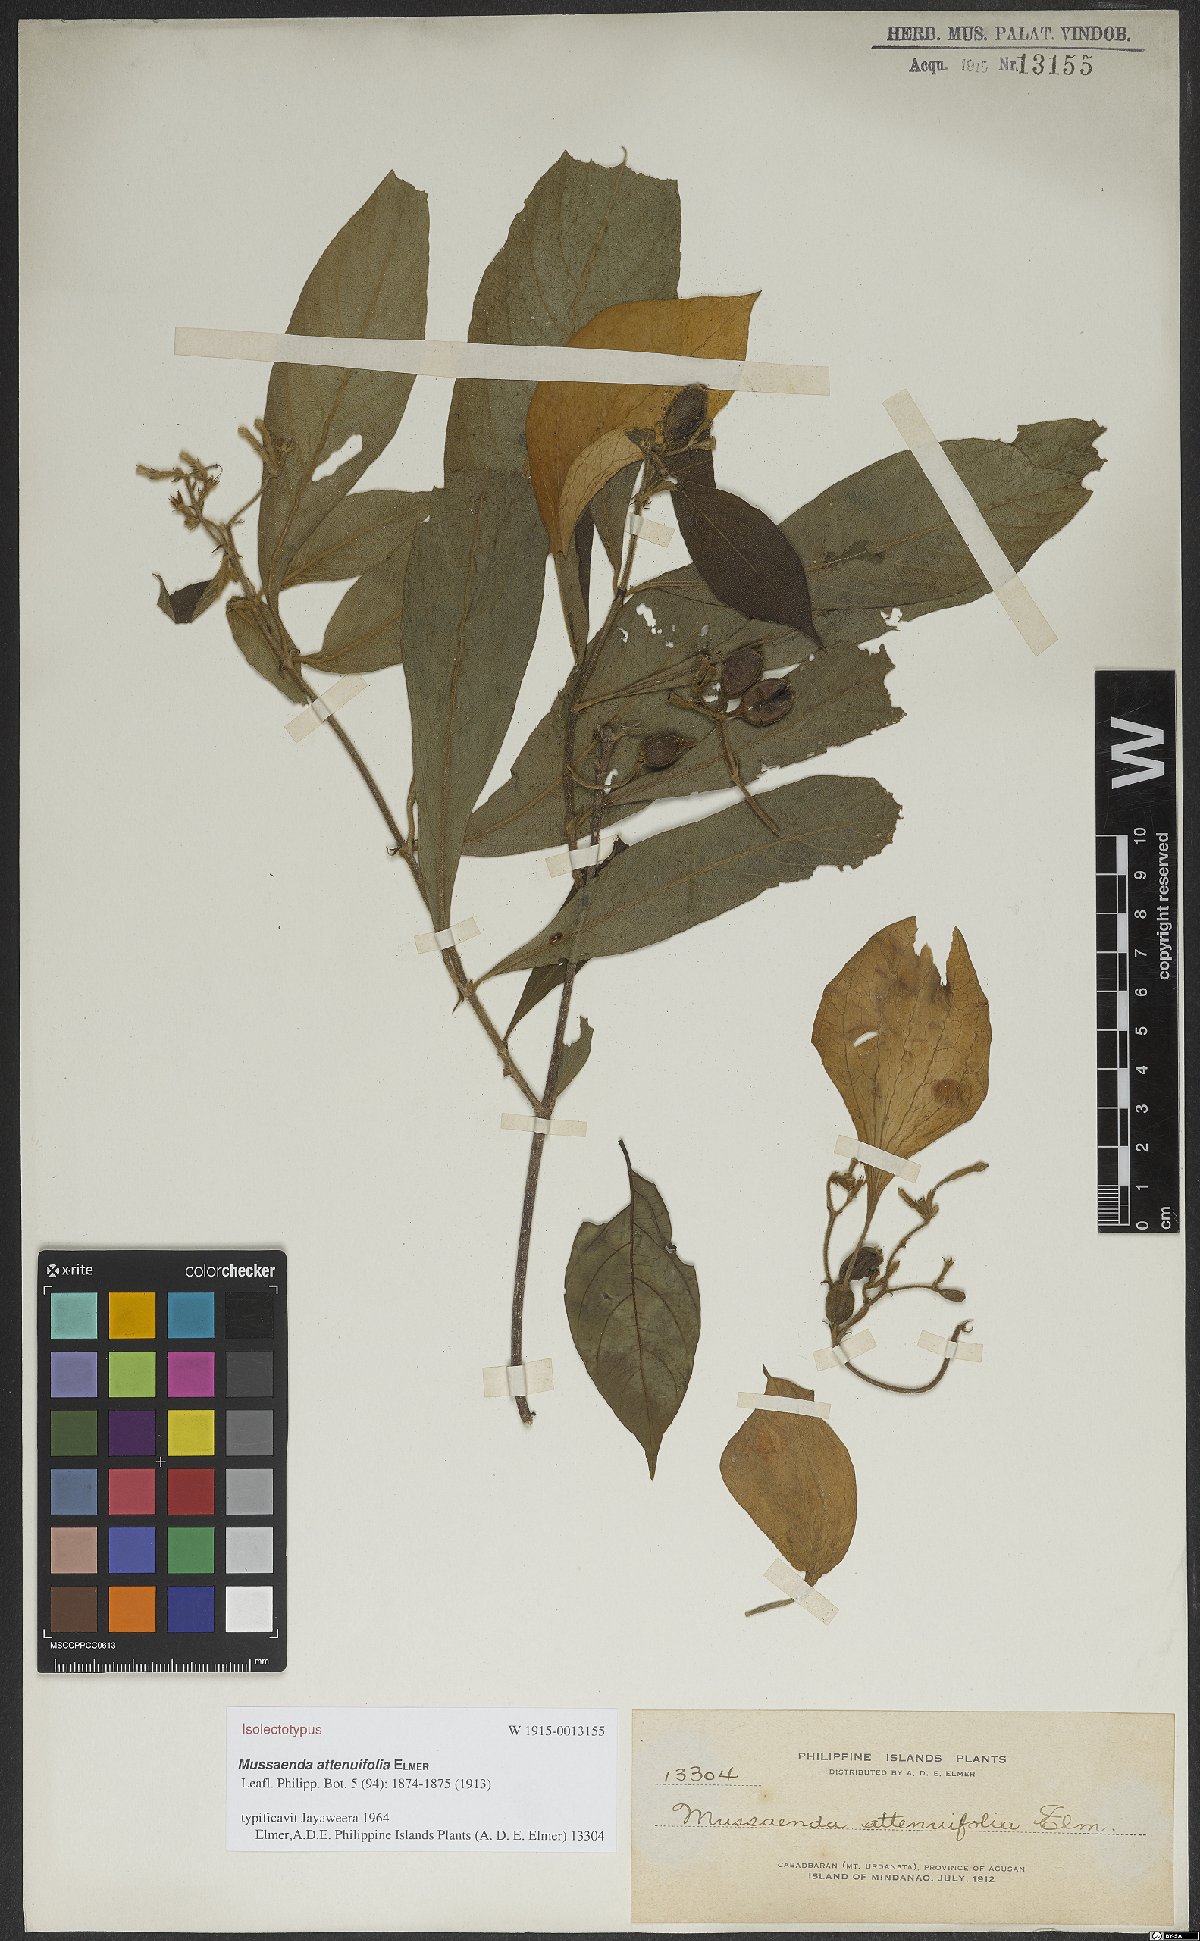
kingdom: Plantae
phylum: Tracheophyta
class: Magnoliopsida
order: Gentianales
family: Rubiaceae
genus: Mussaenda
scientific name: Mussaenda attenuifolia
